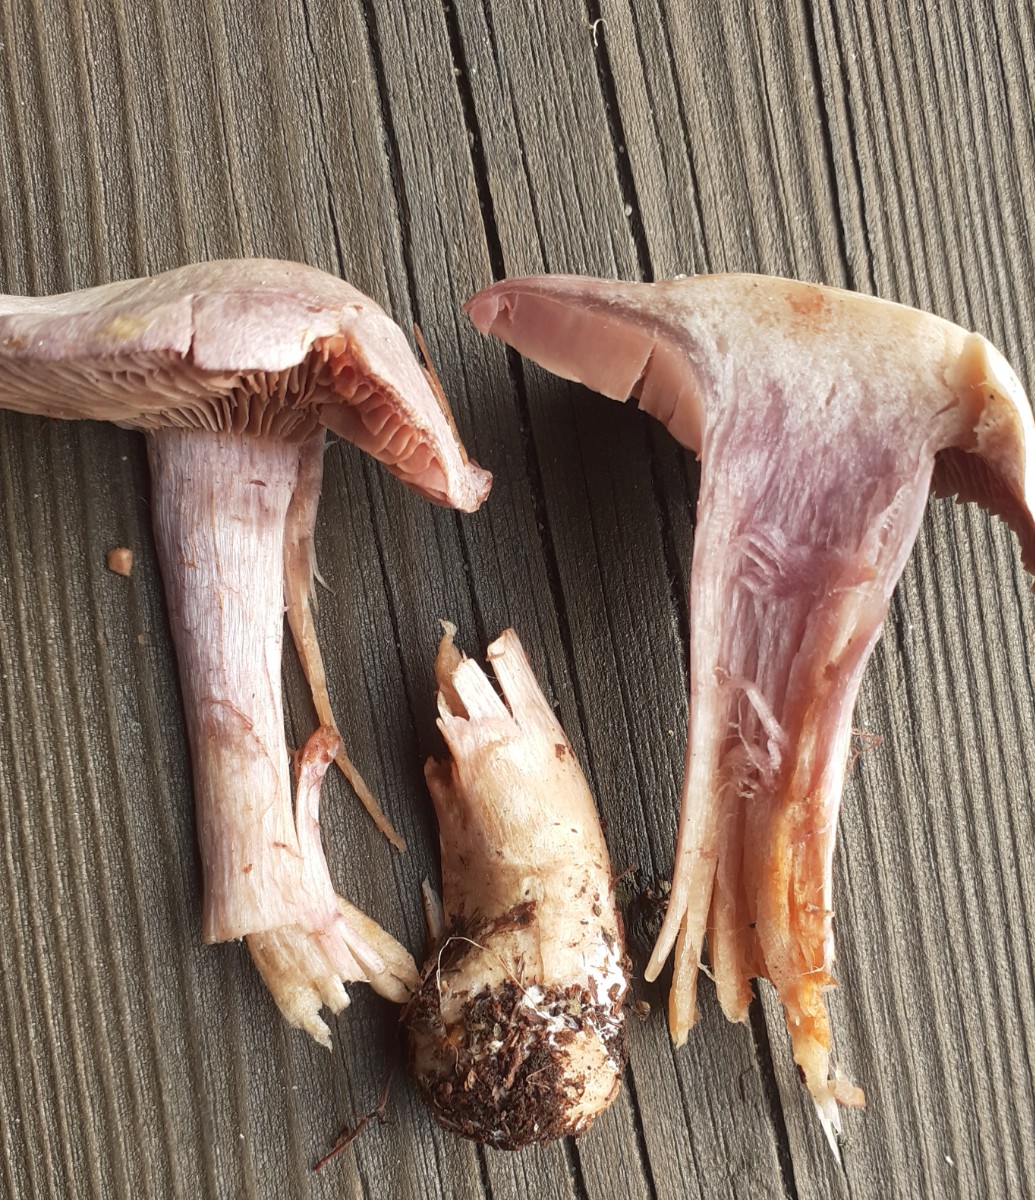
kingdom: Fungi
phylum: Basidiomycota
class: Agaricomycetes
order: Agaricales
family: Cortinariaceae
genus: Cortinarius
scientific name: Cortinarius camphoratus
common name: stinkende slørhat
